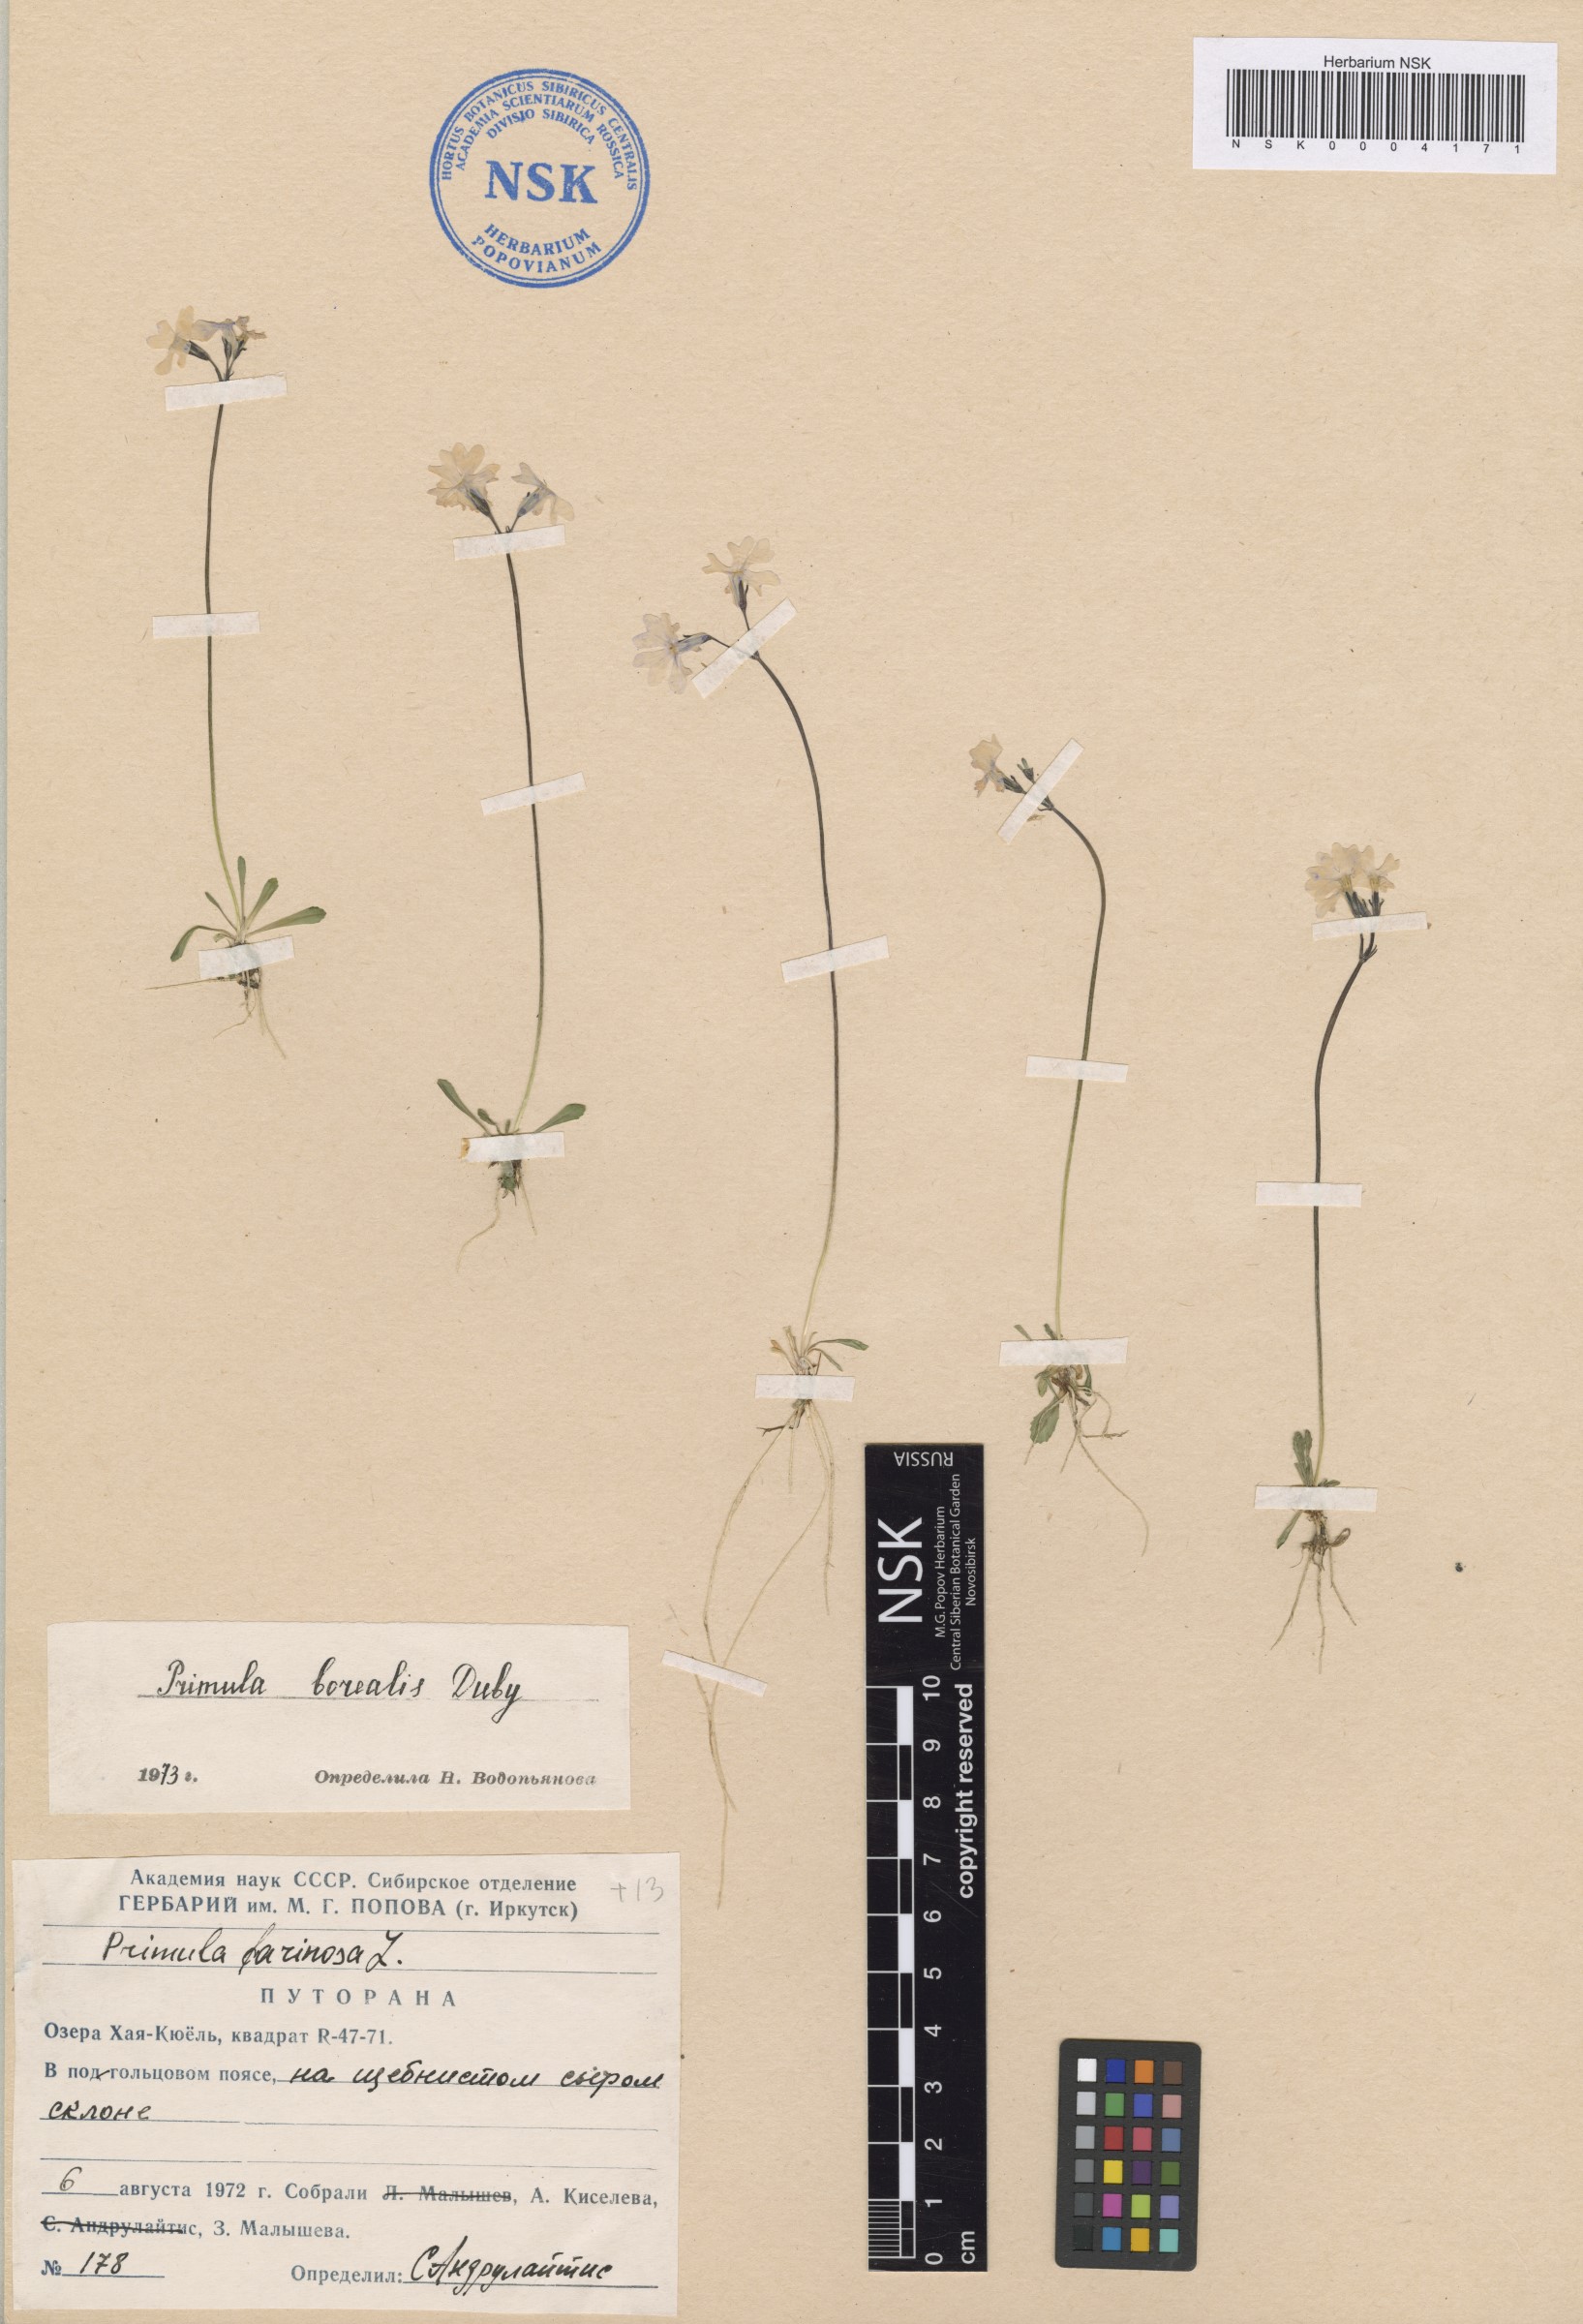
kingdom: Plantae
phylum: Tracheophyta
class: Magnoliopsida
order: Ericales
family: Primulaceae
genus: Primula
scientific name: Primula borealis
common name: Northern primrose
